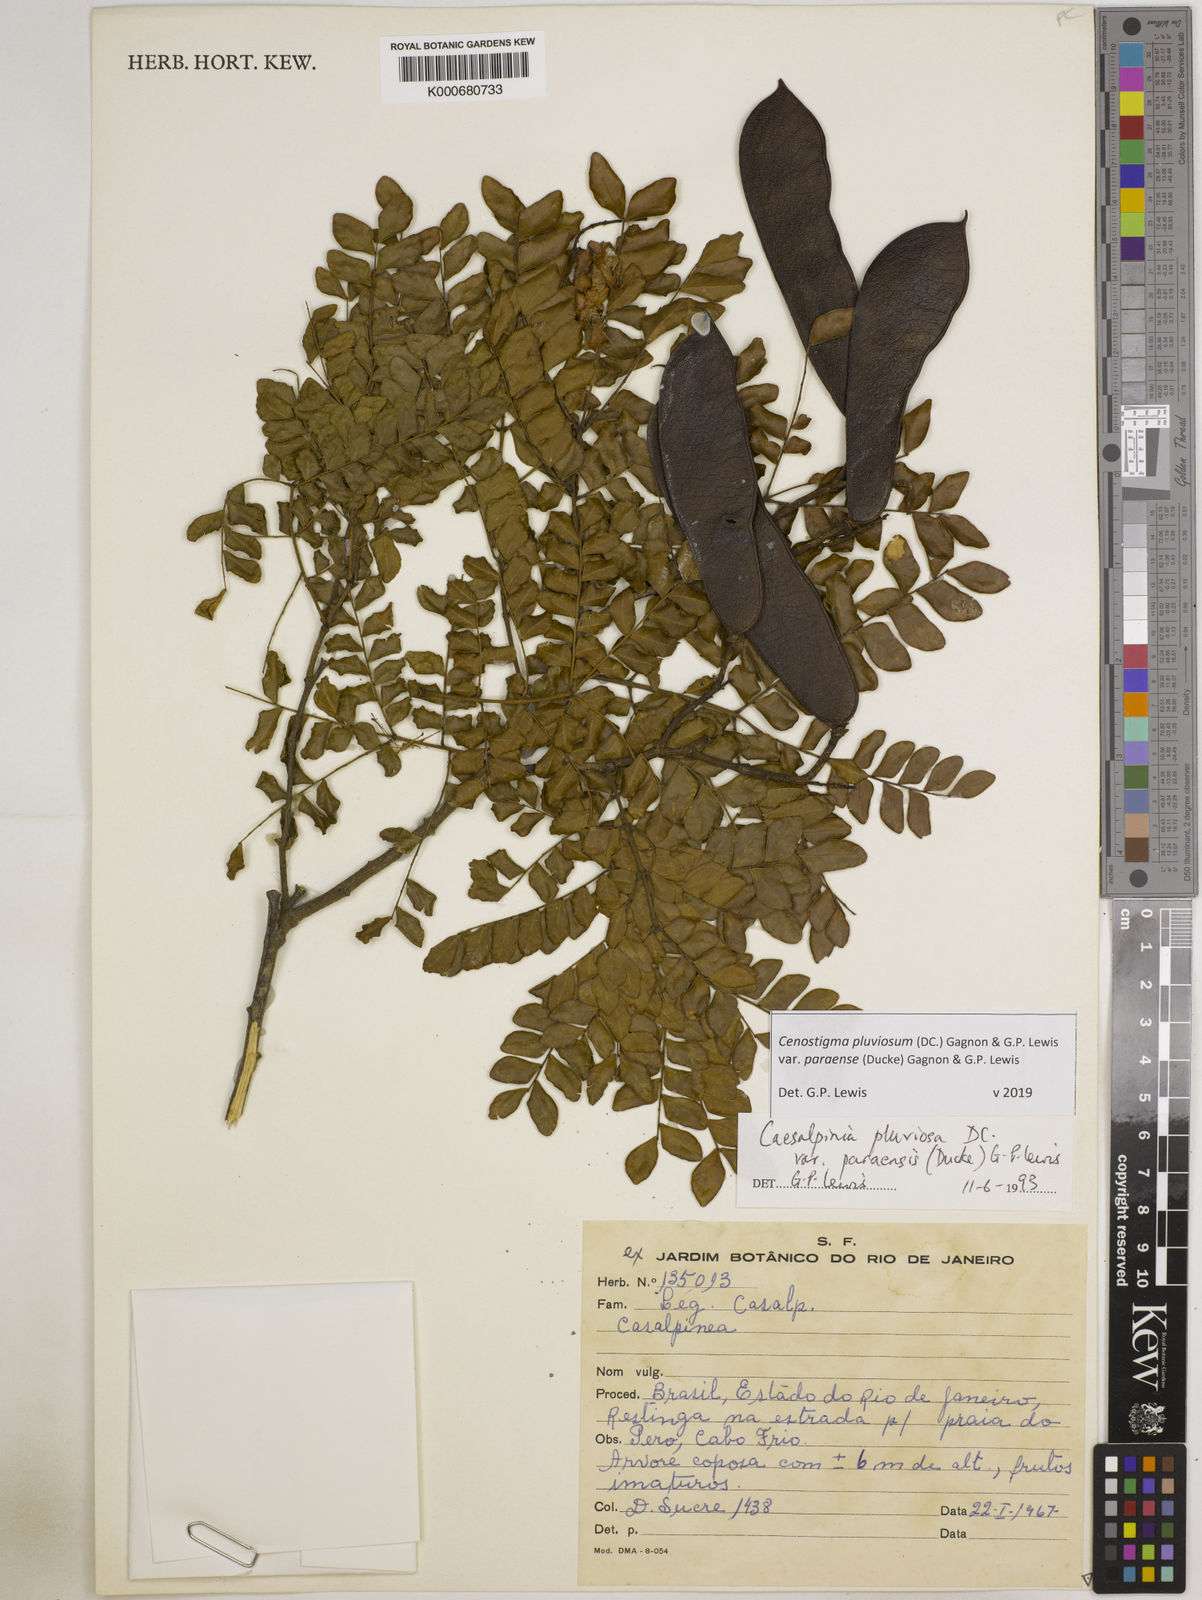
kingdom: Plantae
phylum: Tracheophyta
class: Magnoliopsida
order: Fabales
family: Fabaceae
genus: Cenostigma
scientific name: Cenostigma pluviosum
